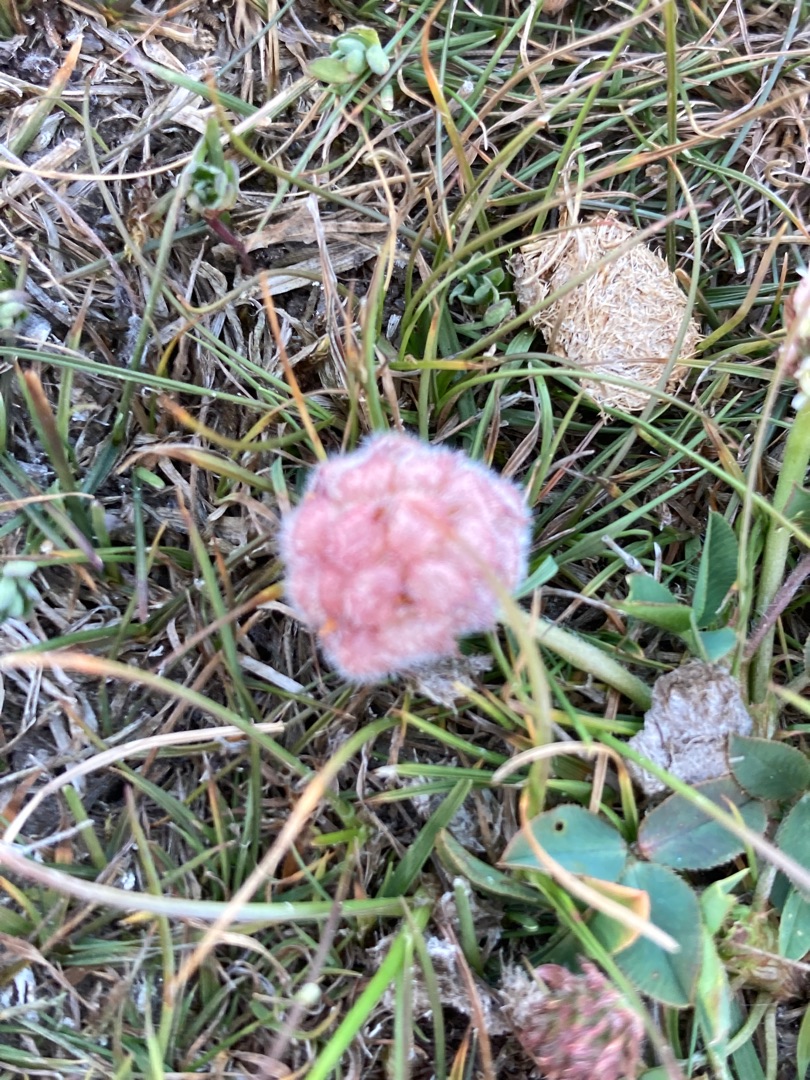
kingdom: Plantae
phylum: Tracheophyta
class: Magnoliopsida
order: Fabales
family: Fabaceae
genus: Trifolium
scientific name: Trifolium fragiferum
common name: Jordbær-kløver
